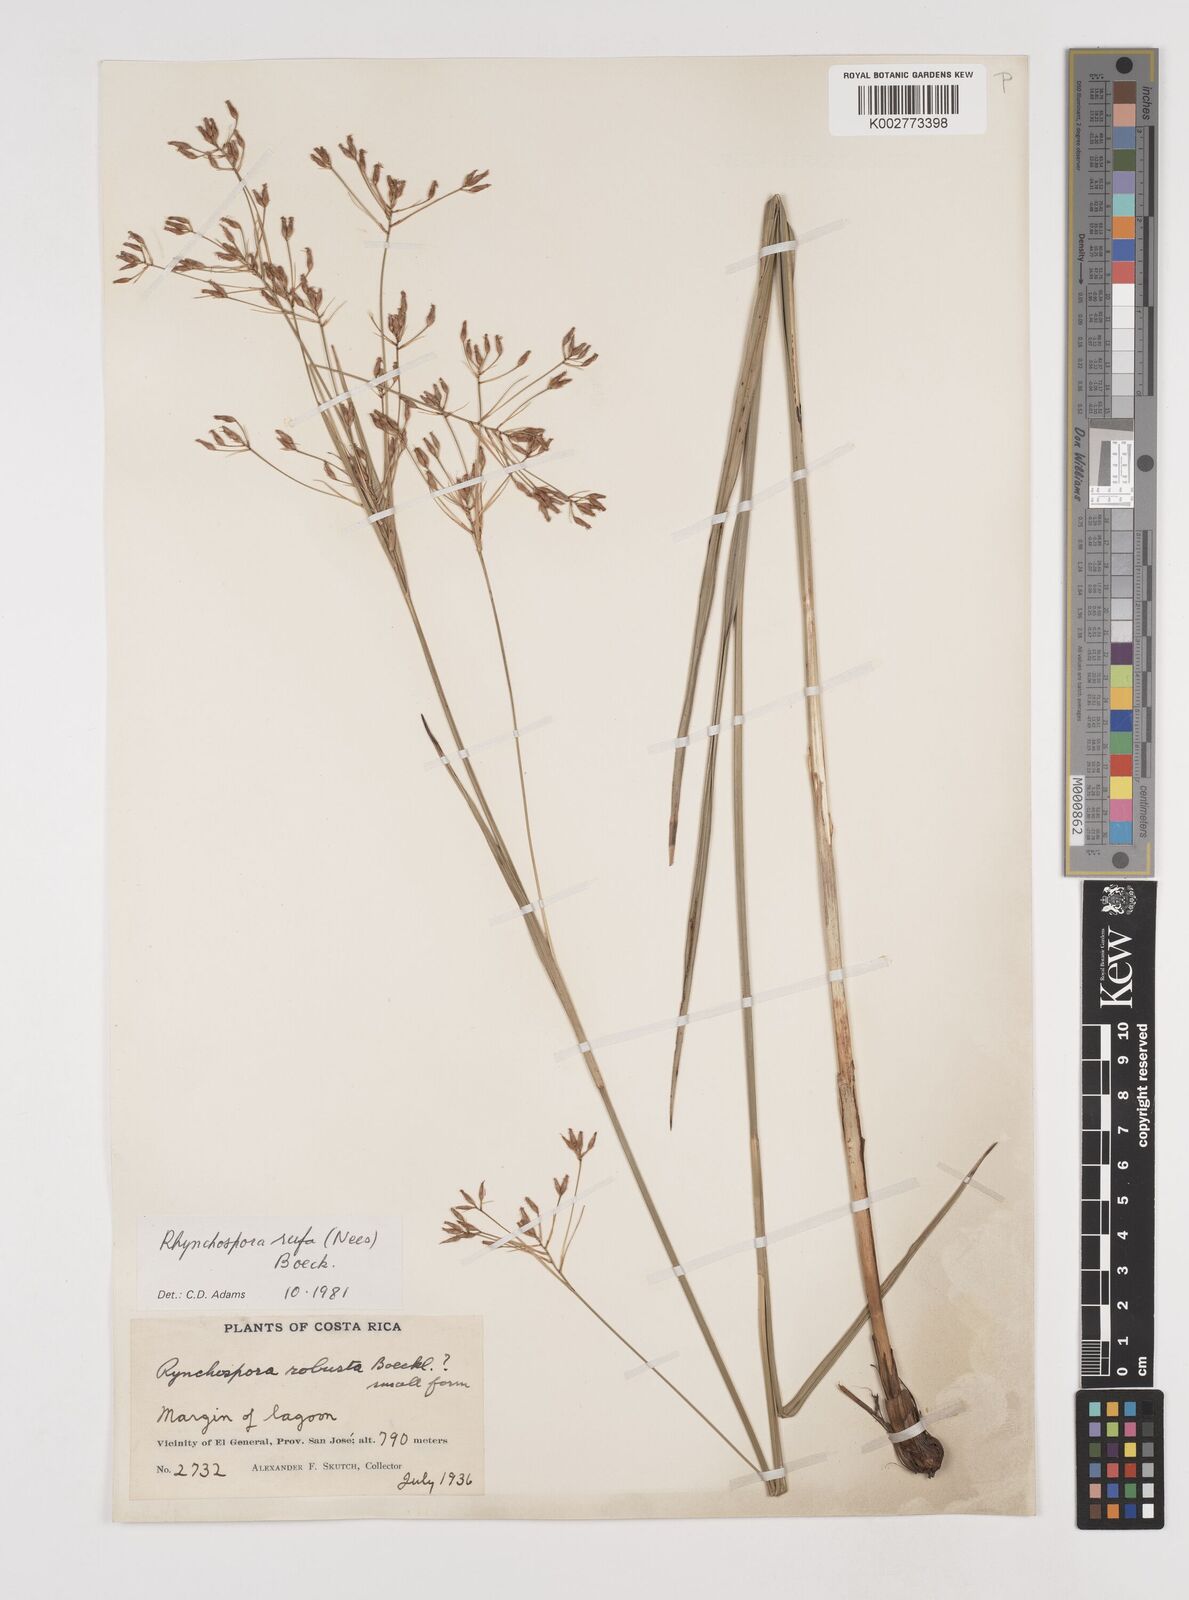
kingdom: Plantae
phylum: Tracheophyta
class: Liliopsida
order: Poales
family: Cyperaceae
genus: Rhynchospora
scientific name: Rhynchospora velutina
